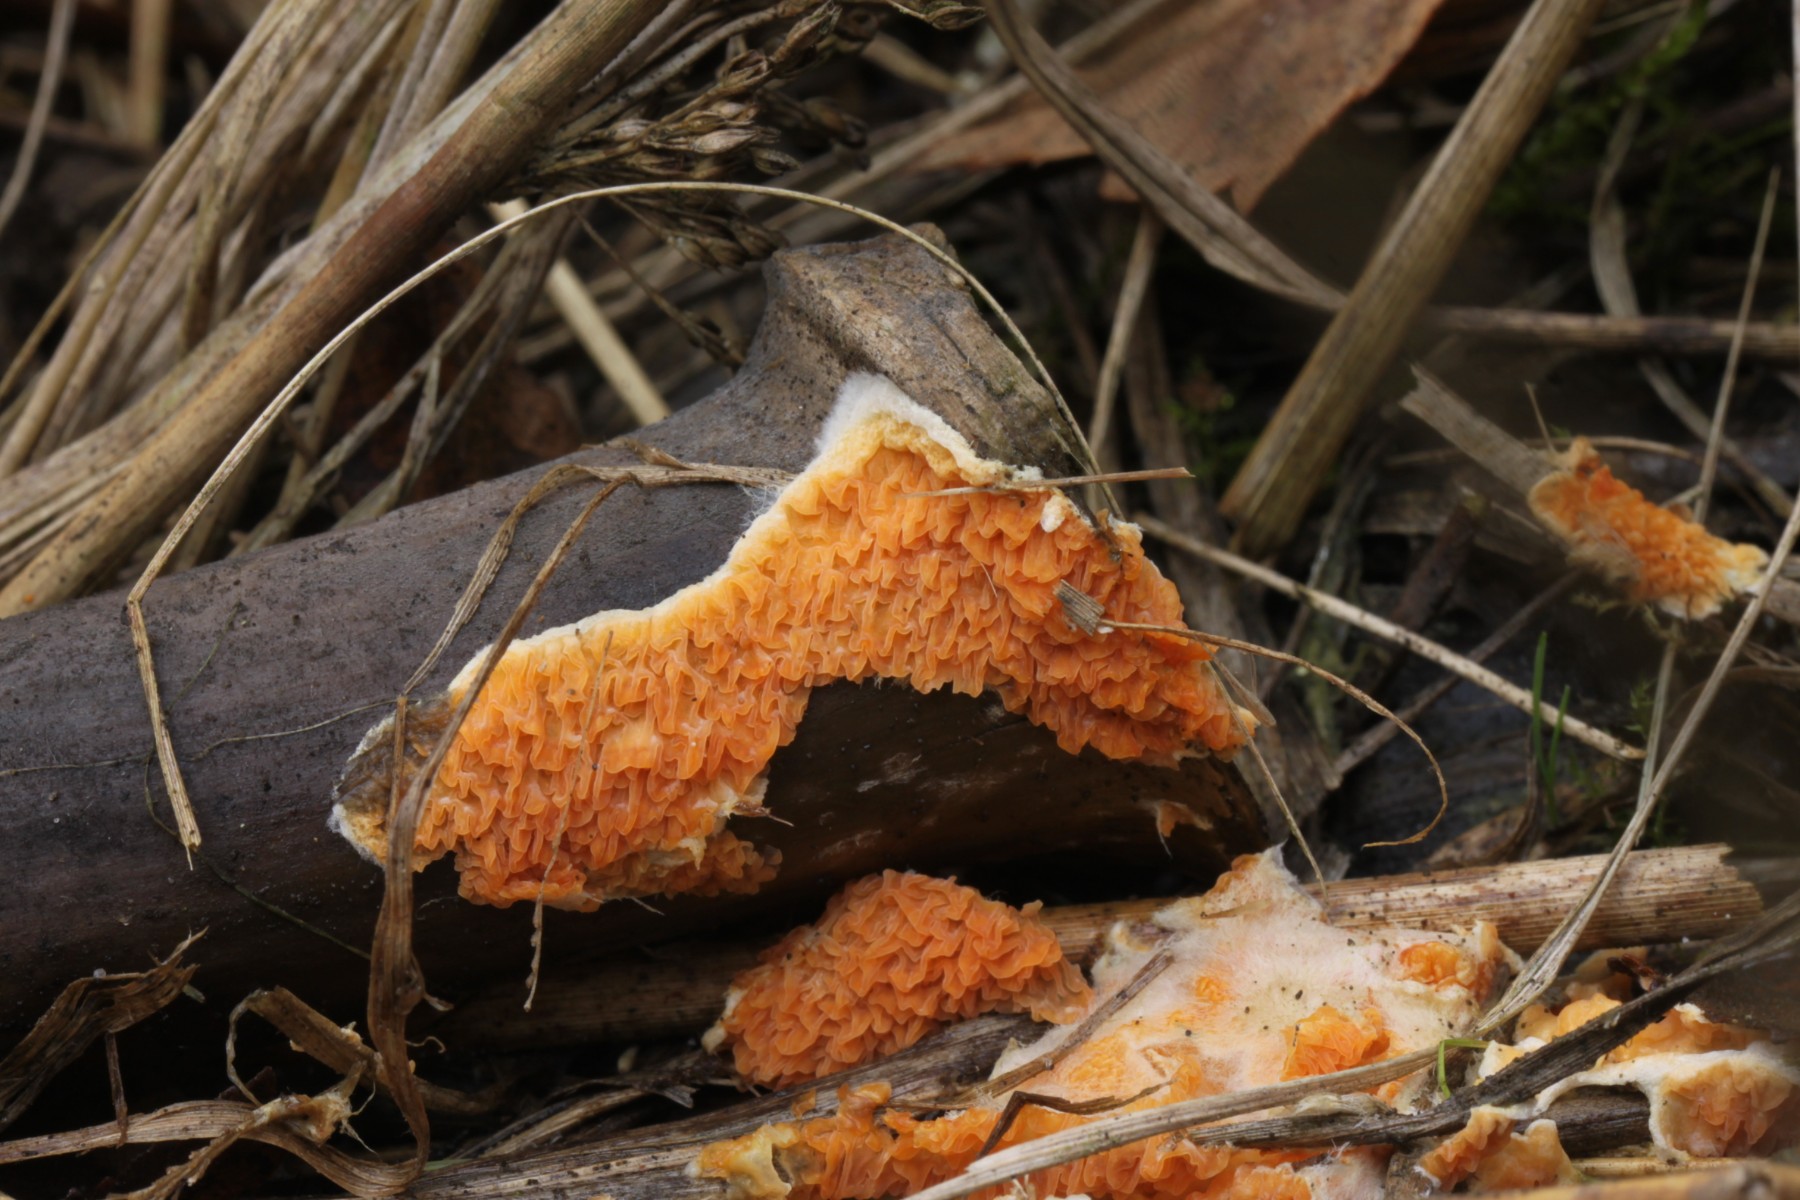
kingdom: Fungi
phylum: Basidiomycota
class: Agaricomycetes
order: Boletales
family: Hygrophoropsidaceae
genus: Leucogyrophana
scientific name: Leucogyrophana mollusca
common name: blød hussvamp
